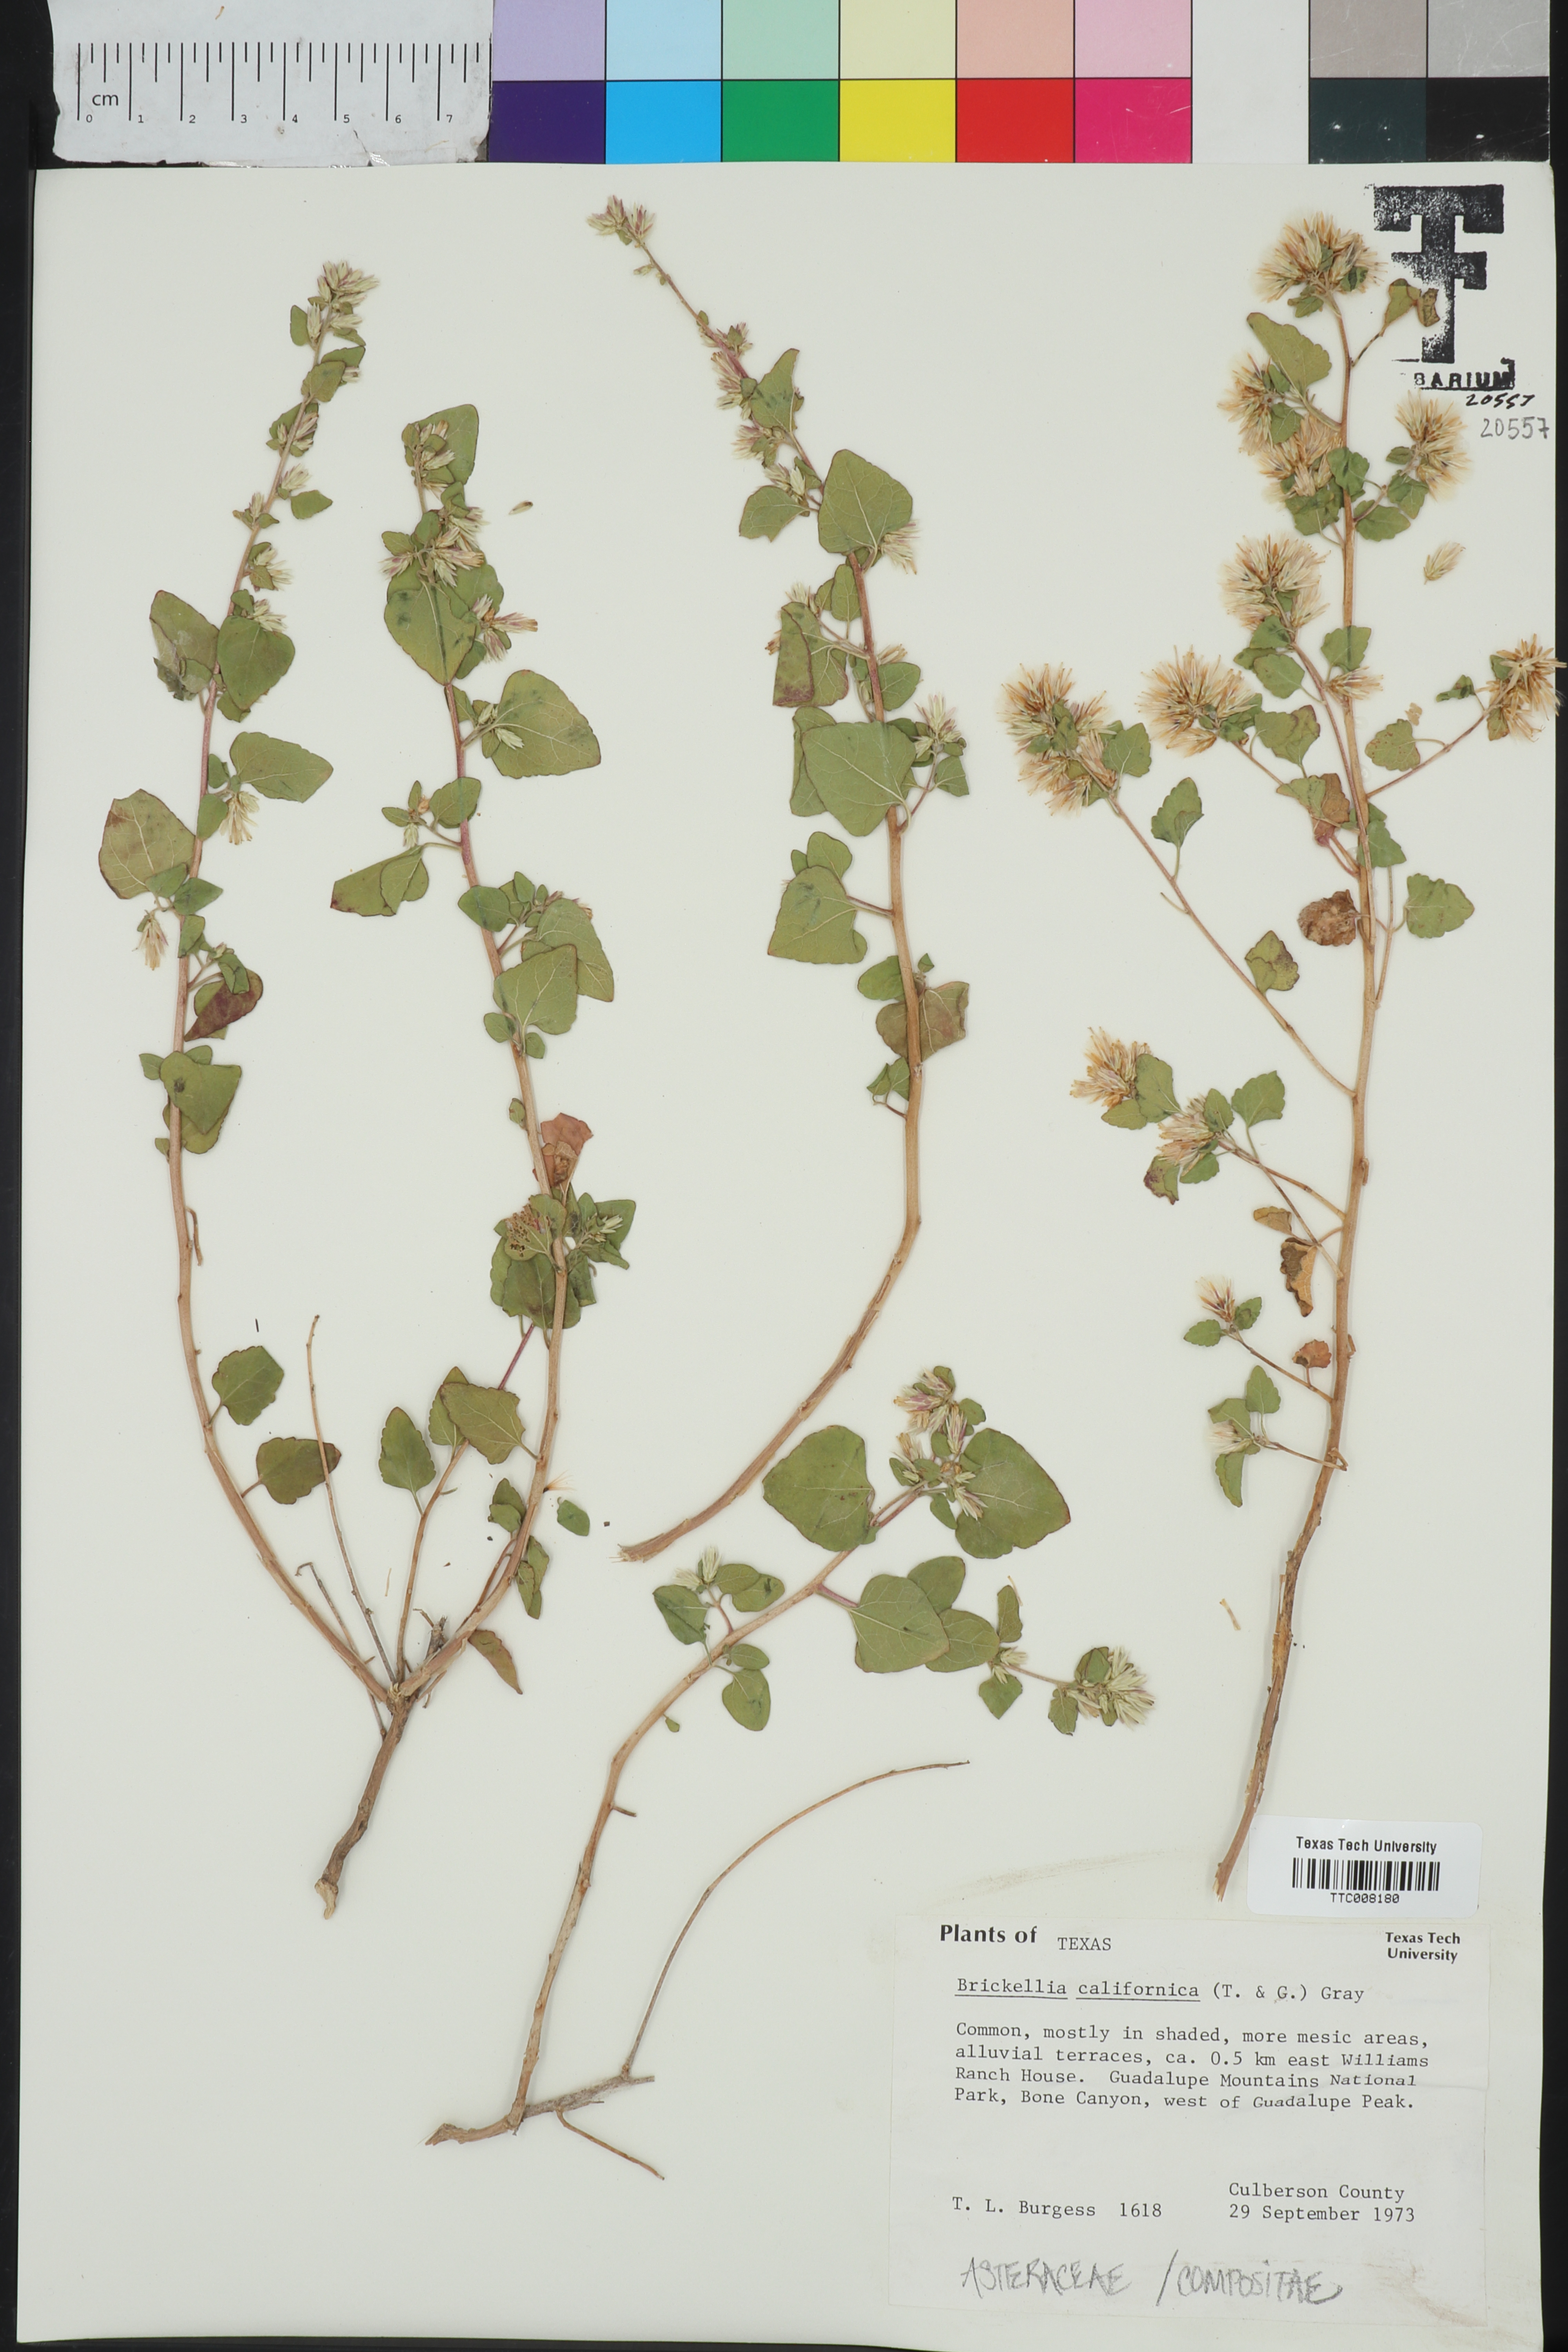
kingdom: Plantae
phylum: Tracheophyta
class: Magnoliopsida
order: Asterales
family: Asteraceae
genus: Brickellia
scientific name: Brickellia californica
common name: California brickellbush
